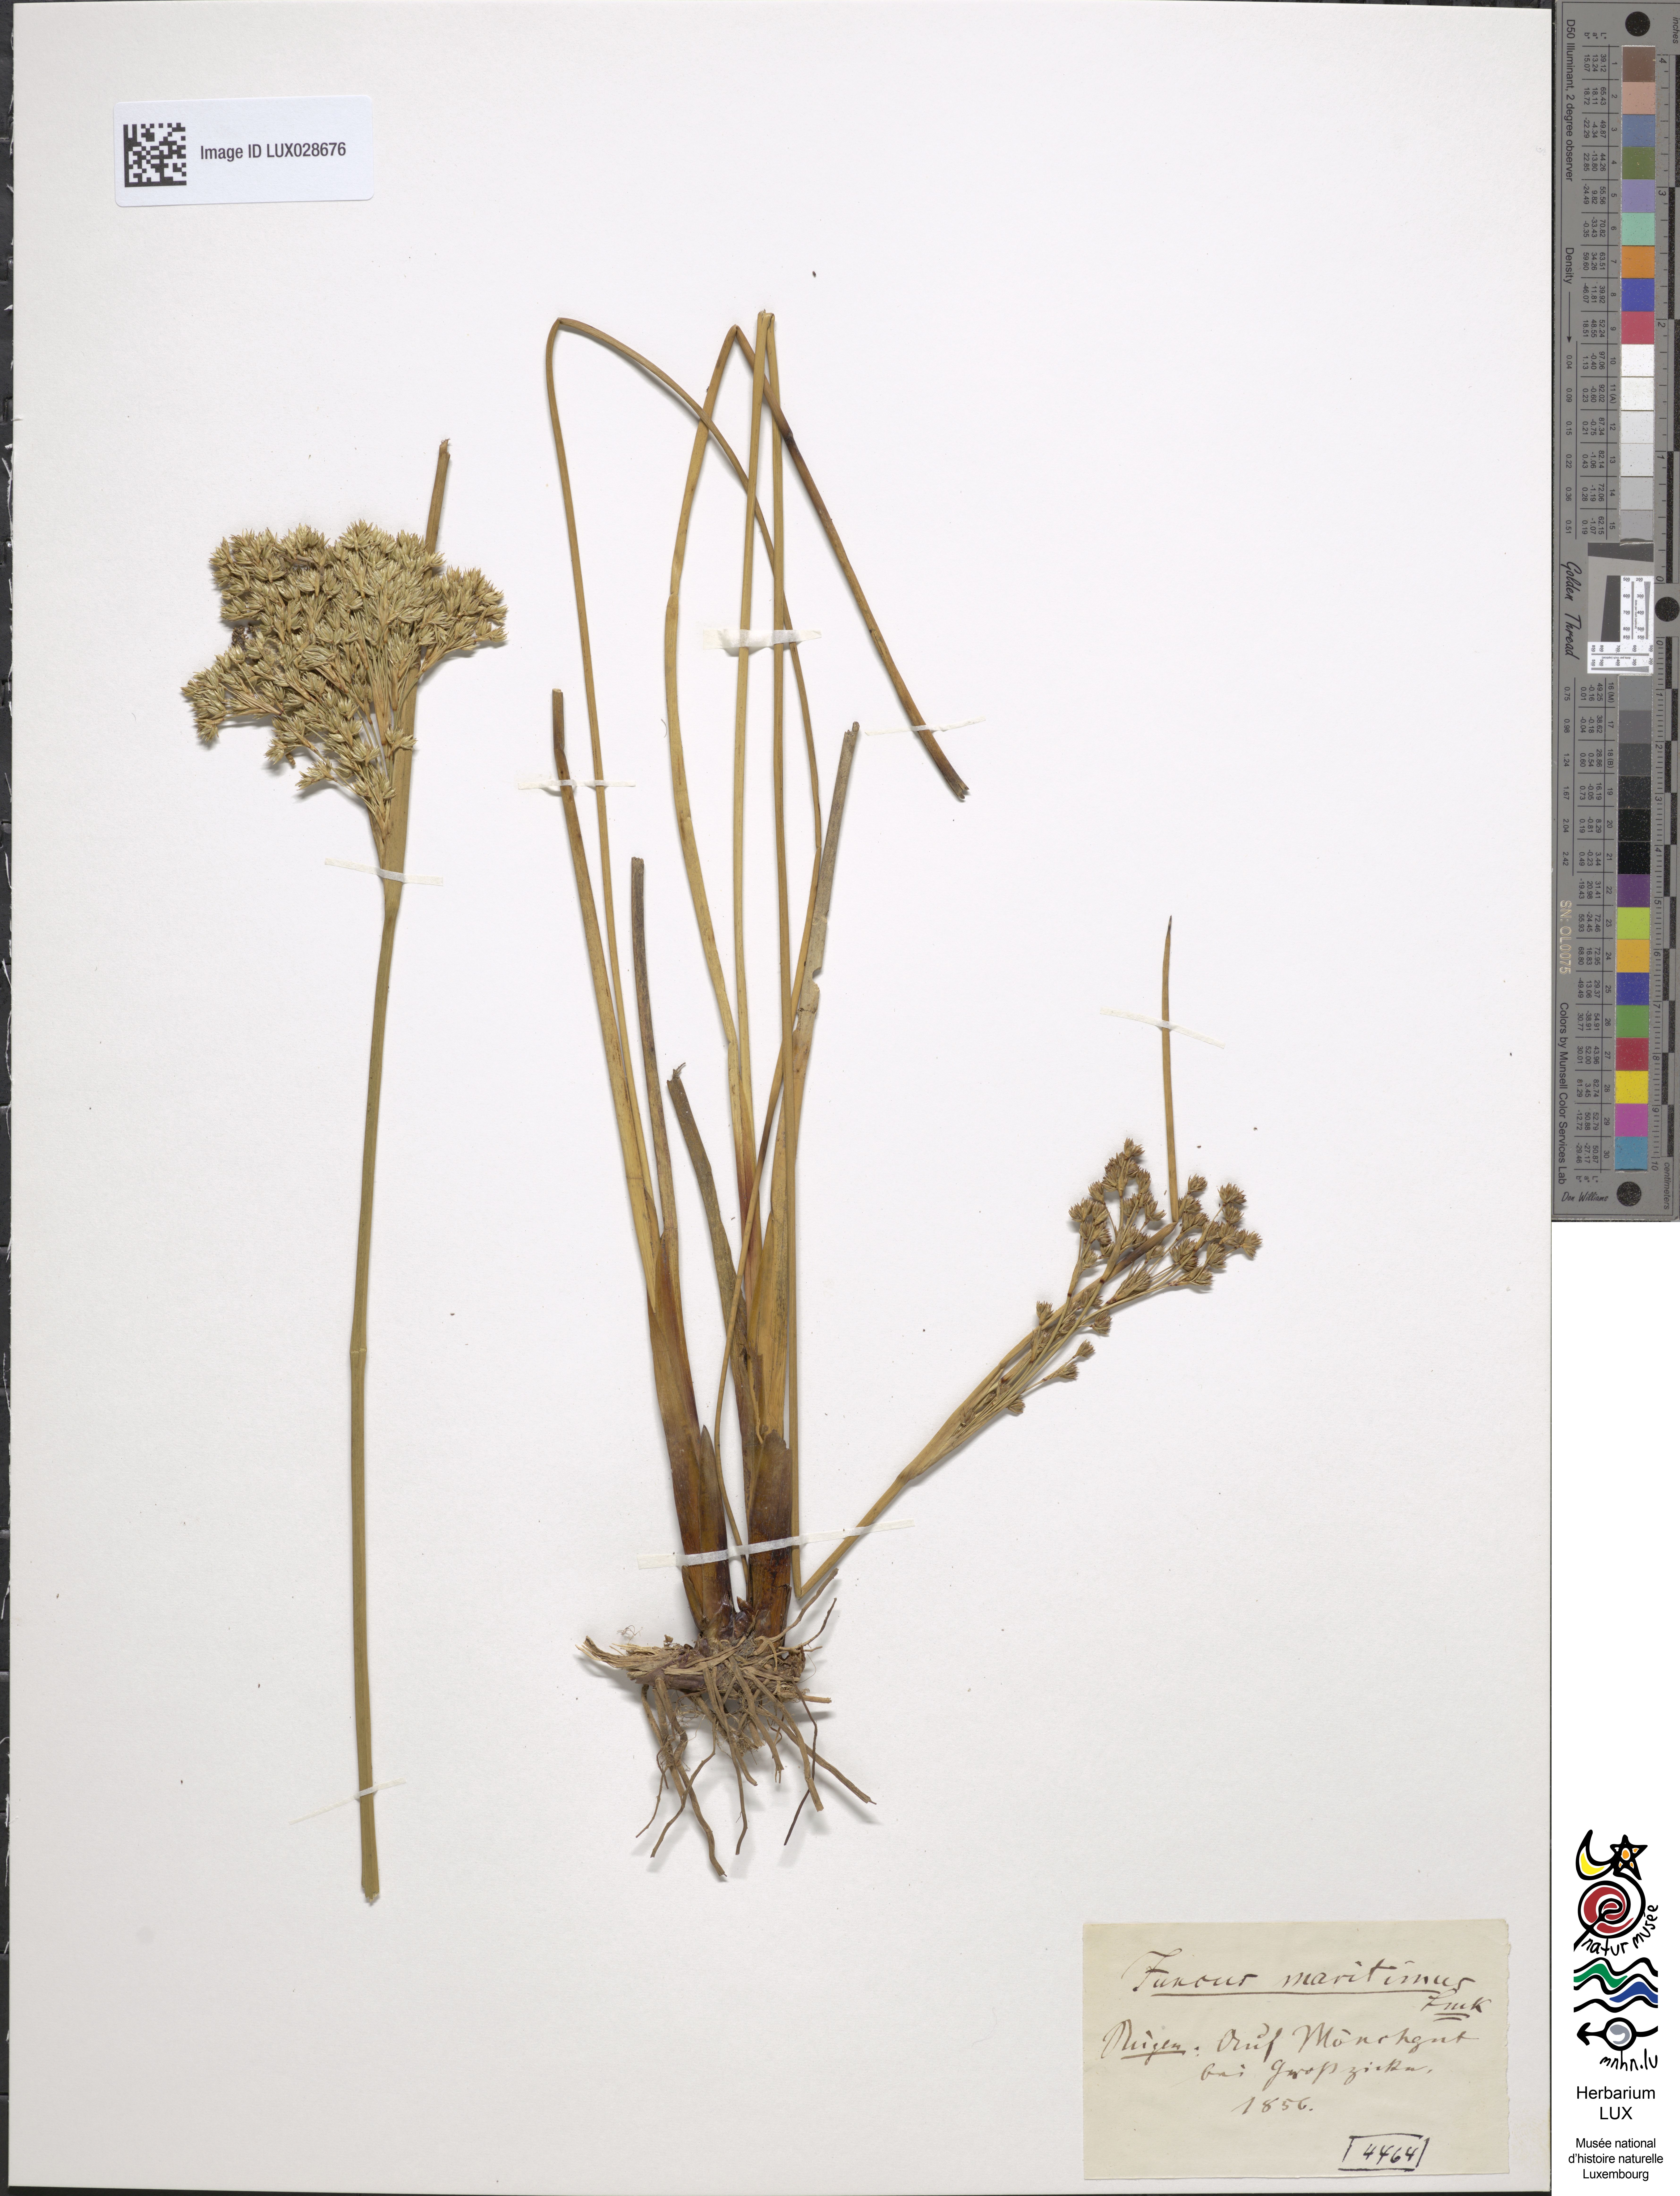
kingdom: Plantae
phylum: Tracheophyta
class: Liliopsida
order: Poales
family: Juncaceae
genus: Juncus
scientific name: Juncus maritimus
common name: Sea rush
